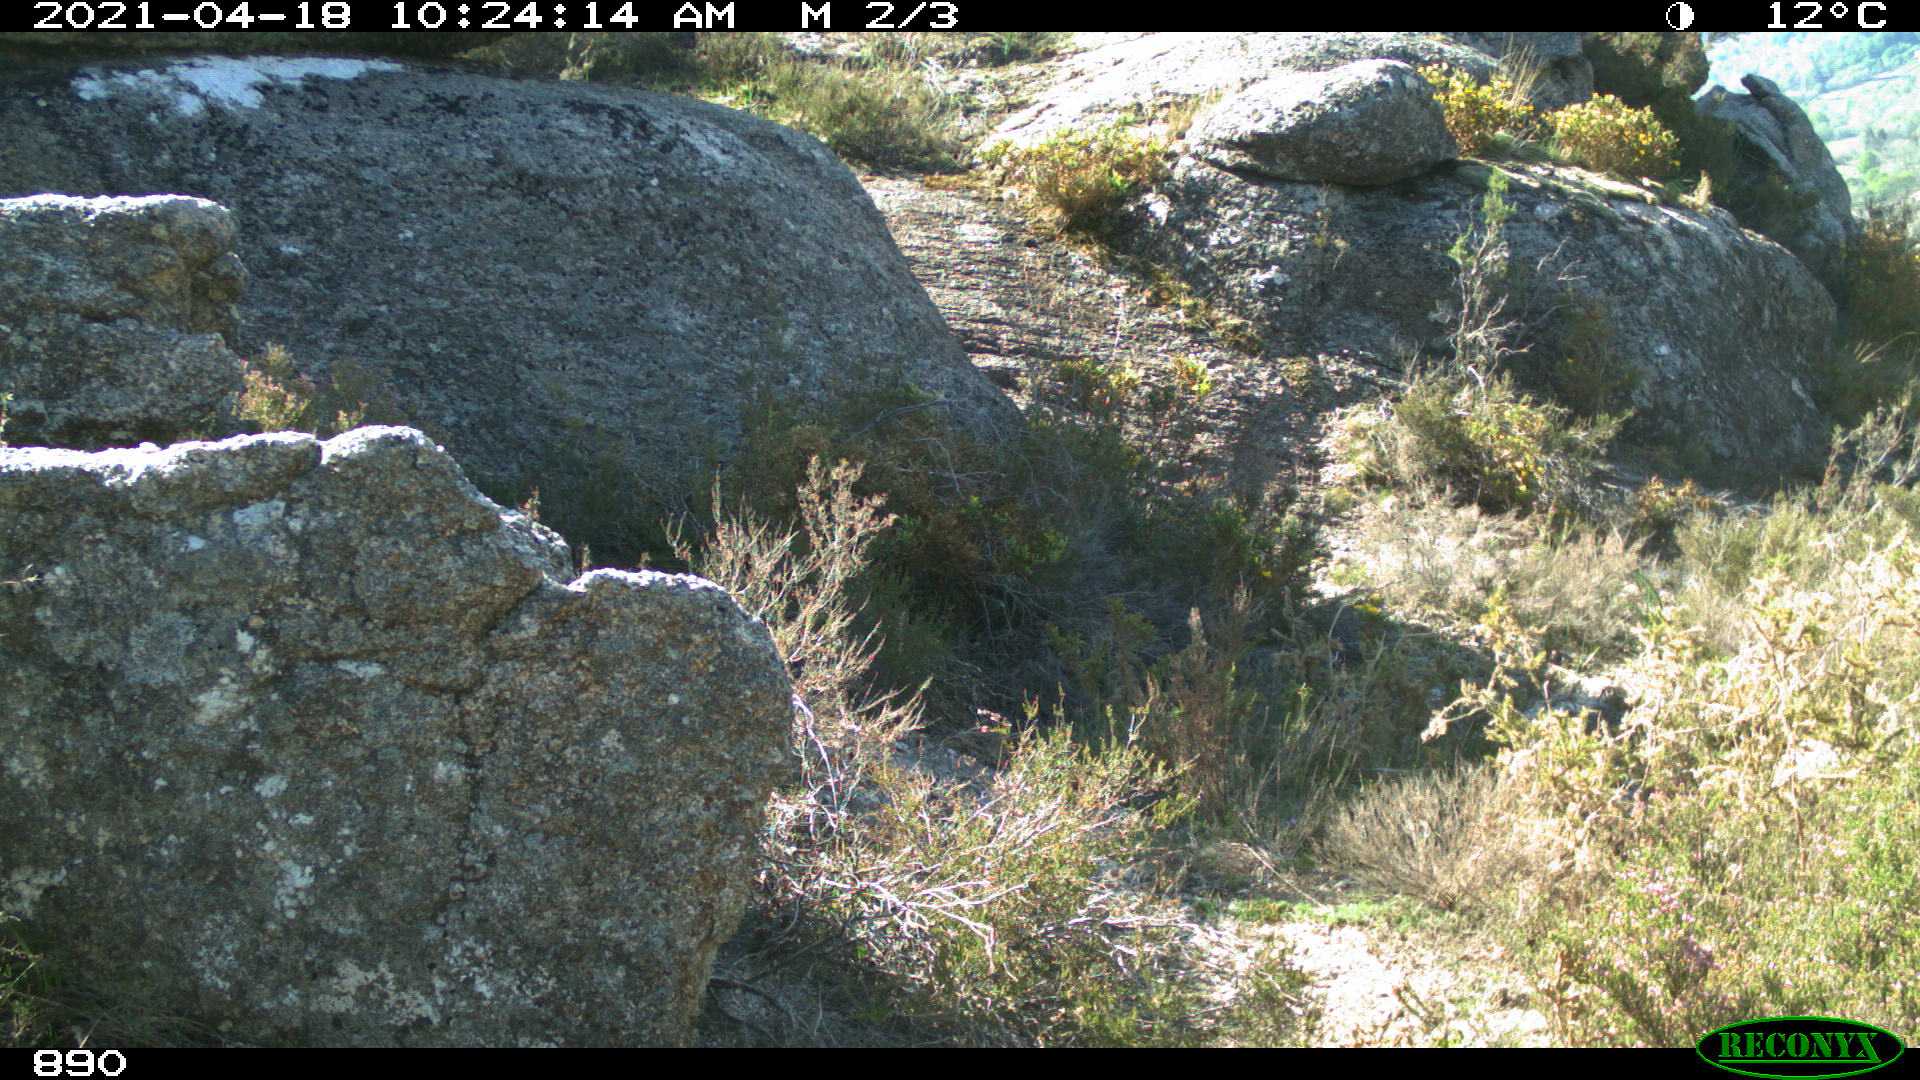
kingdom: Animalia
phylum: Chordata
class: Mammalia
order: Artiodactyla
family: Bovidae
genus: Capra
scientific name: Capra pyrenaica
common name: Spanish ibex
